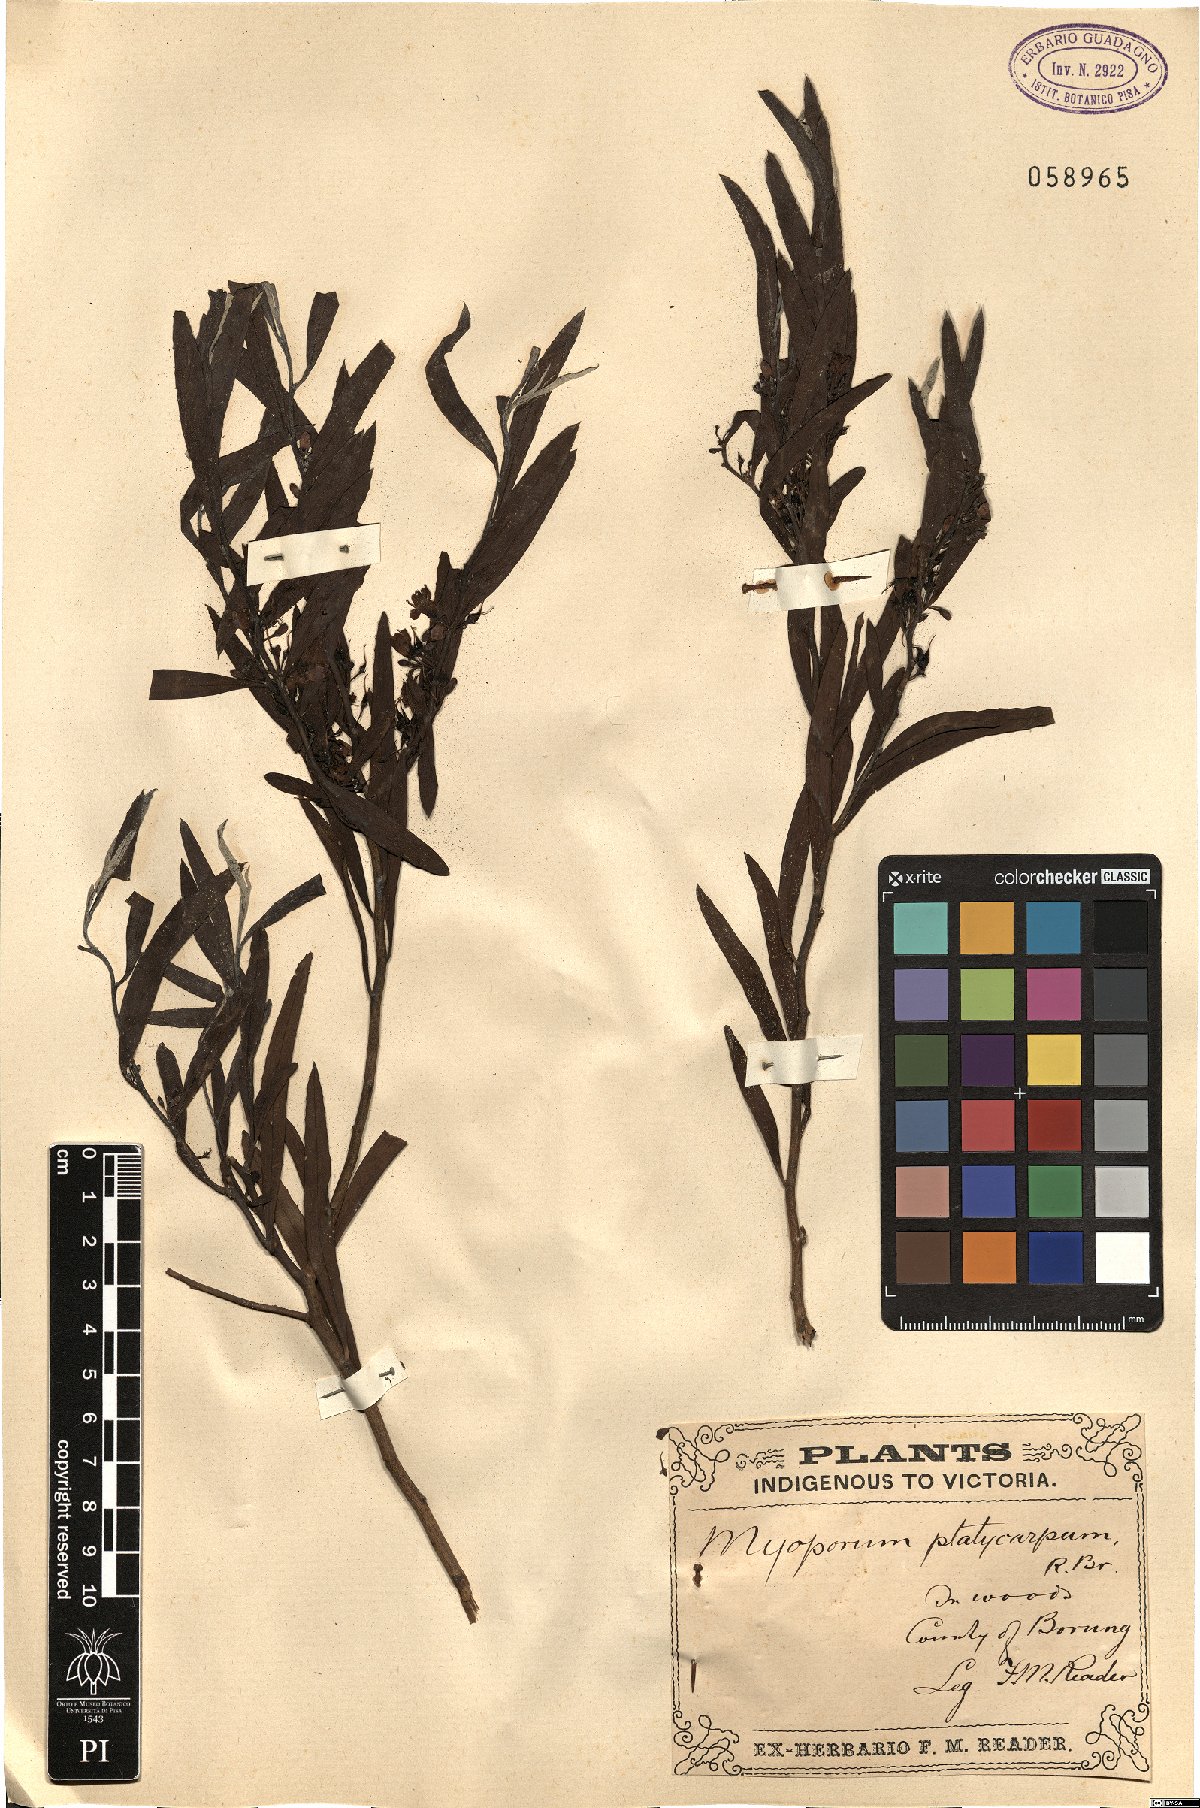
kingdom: Plantae
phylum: Tracheophyta
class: Magnoliopsida
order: Lamiales
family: Scrophulariaceae
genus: Myoporum
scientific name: Myoporum platycarpum
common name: Sugartree
